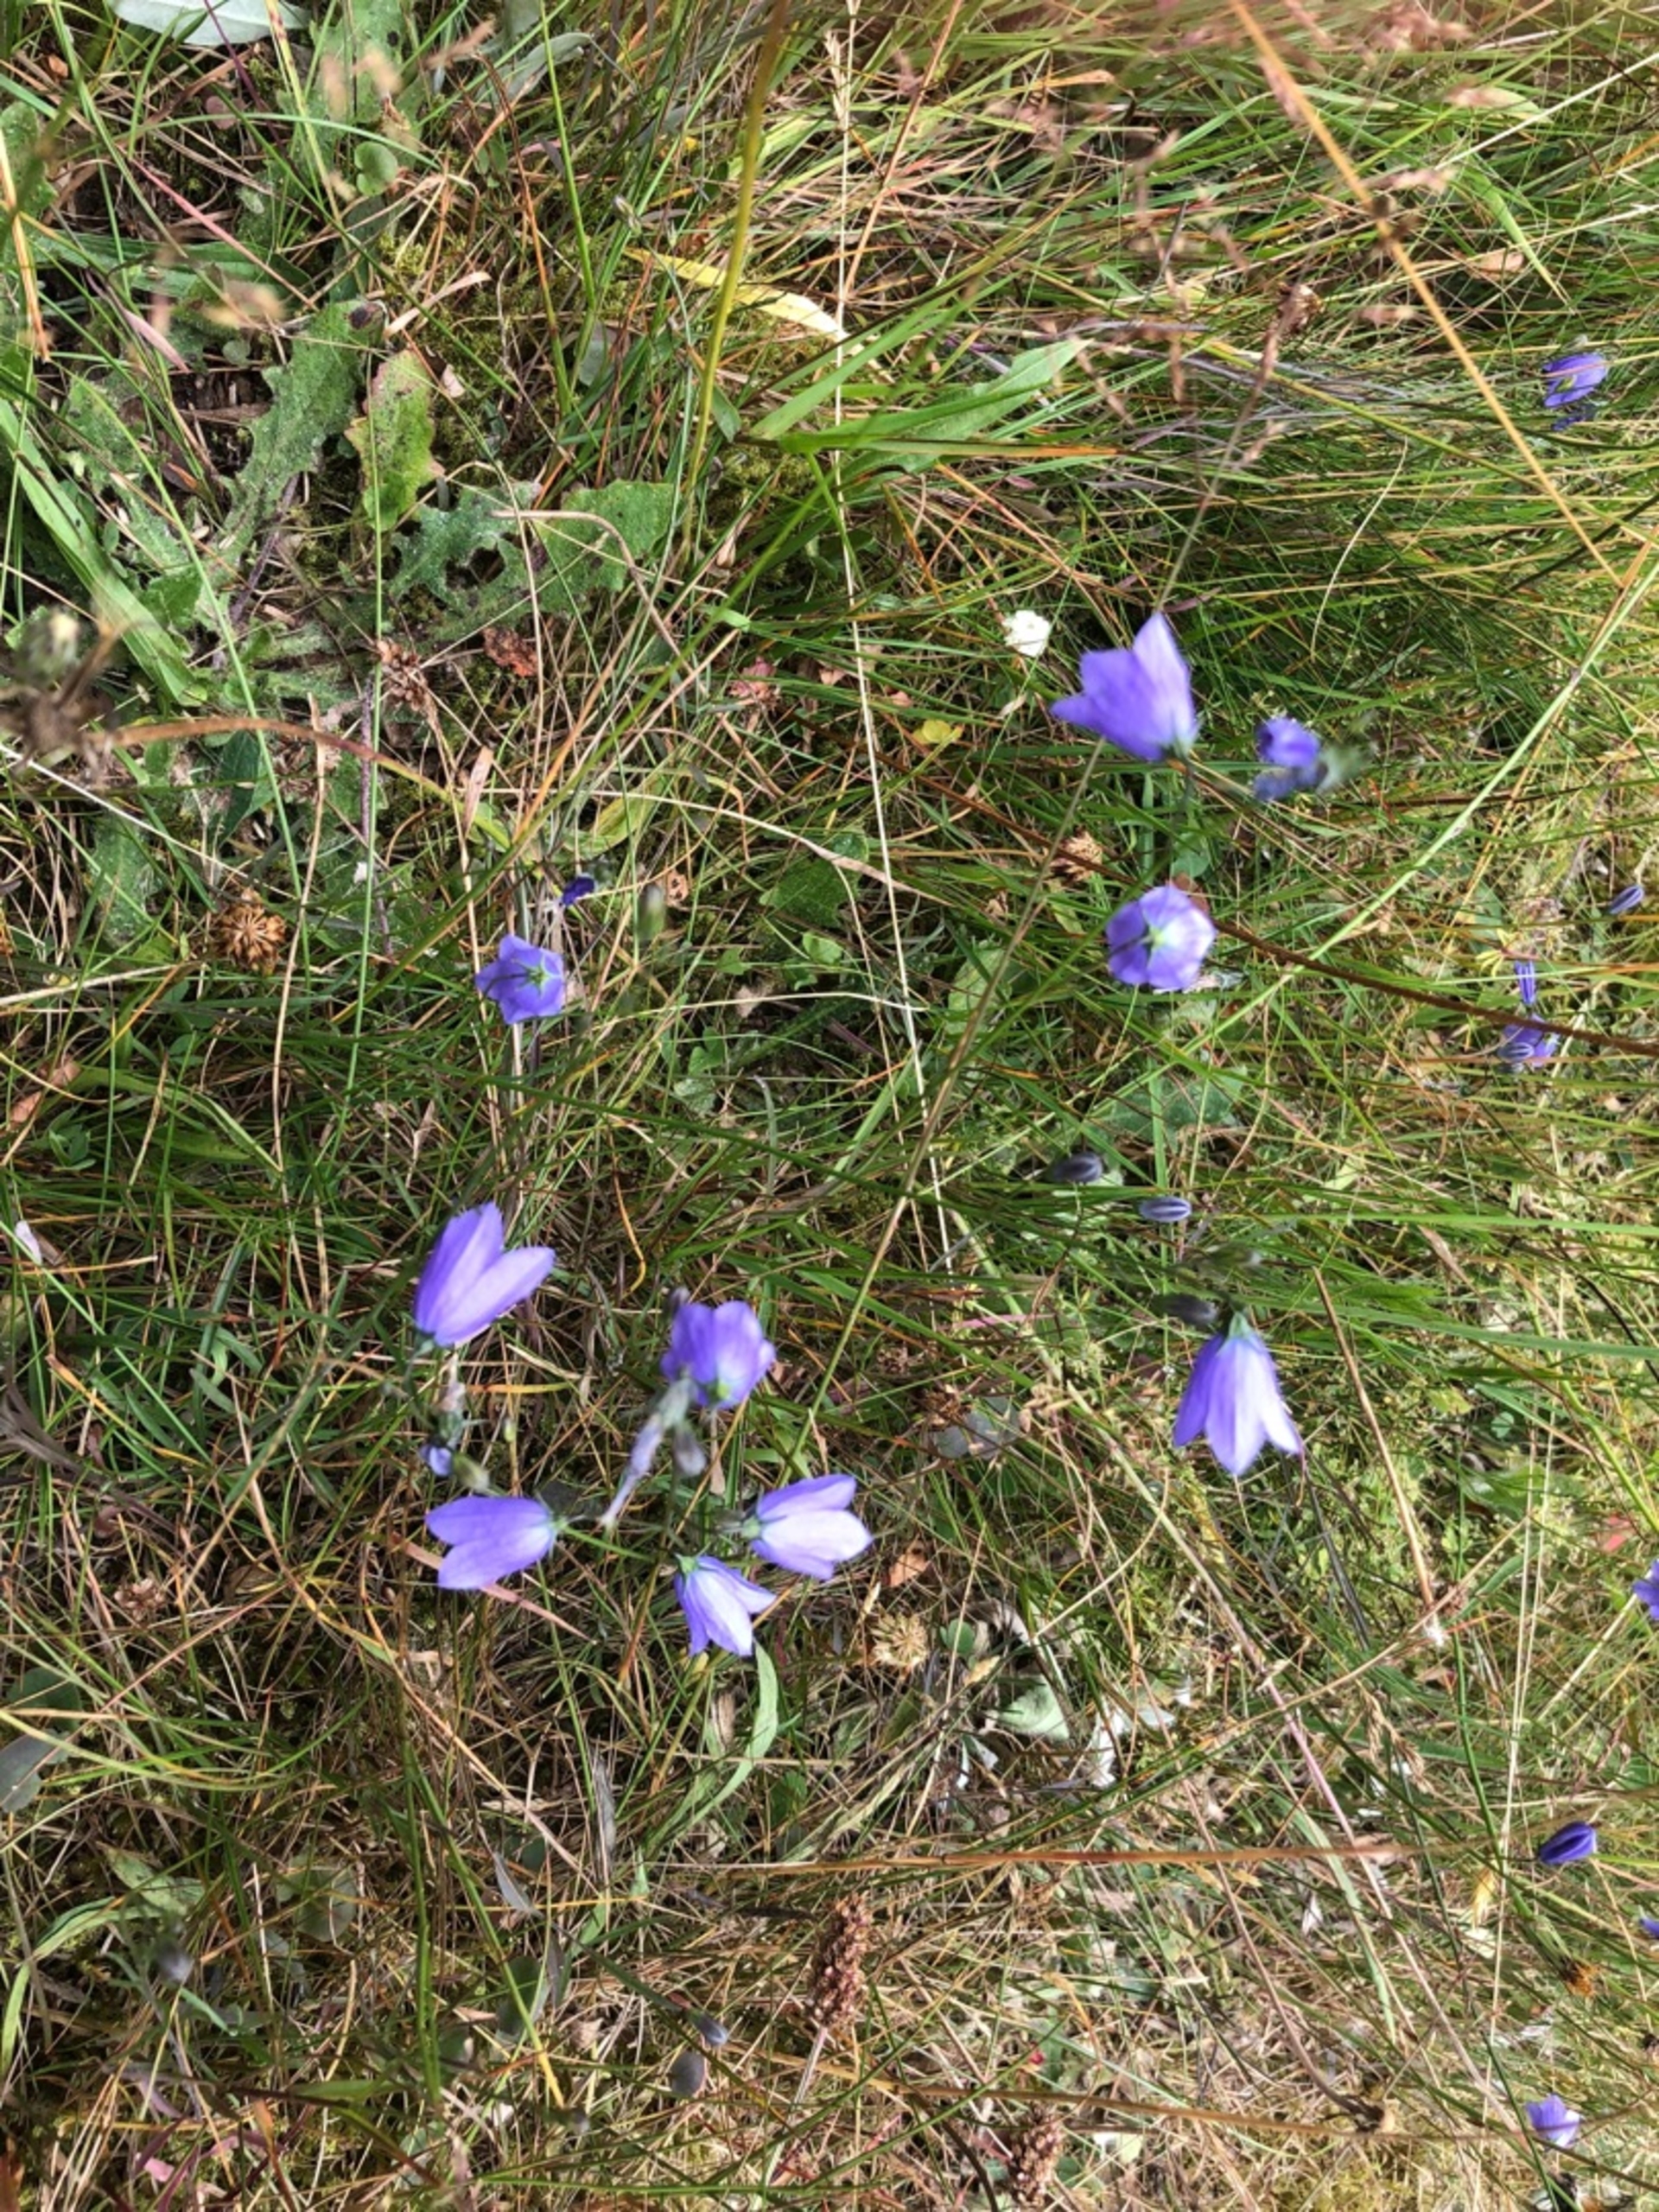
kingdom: Plantae
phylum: Tracheophyta
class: Magnoliopsida
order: Asterales
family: Campanulaceae
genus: Campanula
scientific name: Campanula rotundifolia
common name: Liden klokke
